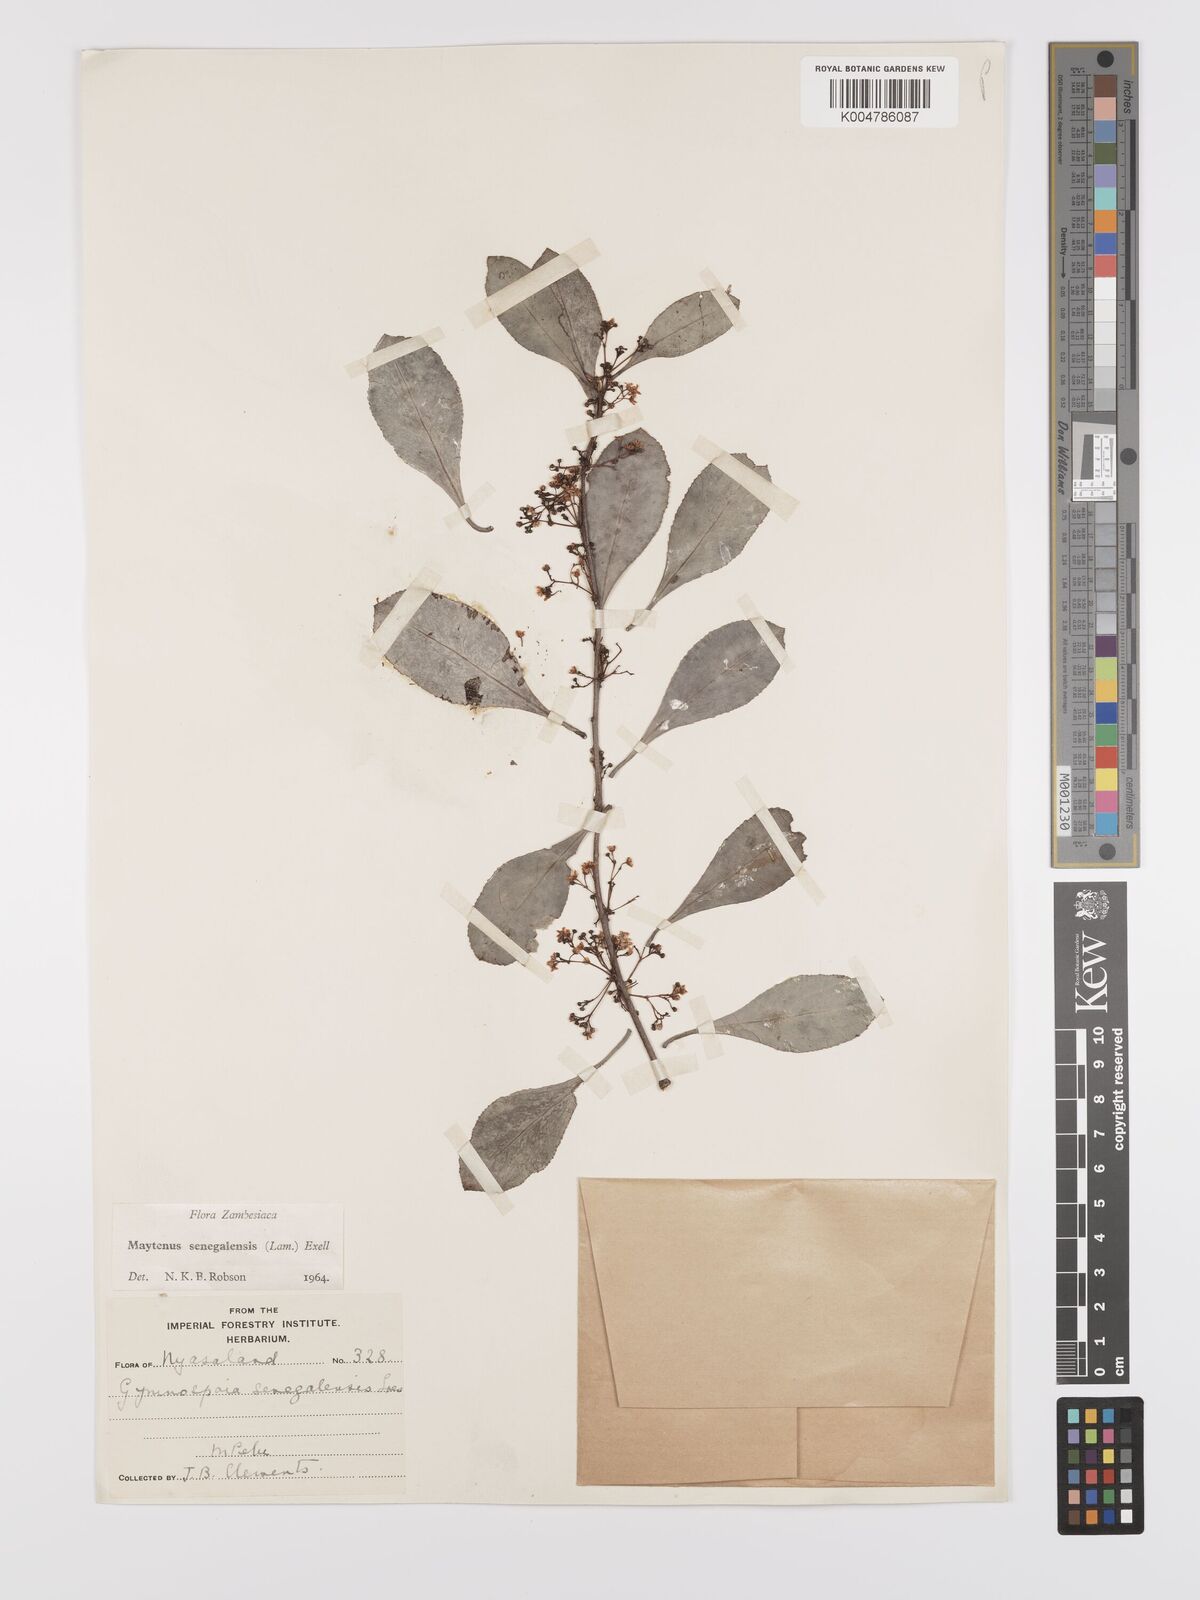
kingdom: Plantae
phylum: Tracheophyta
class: Magnoliopsida
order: Celastrales
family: Celastraceae
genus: Gymnosporia
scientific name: Gymnosporia senegalensis
